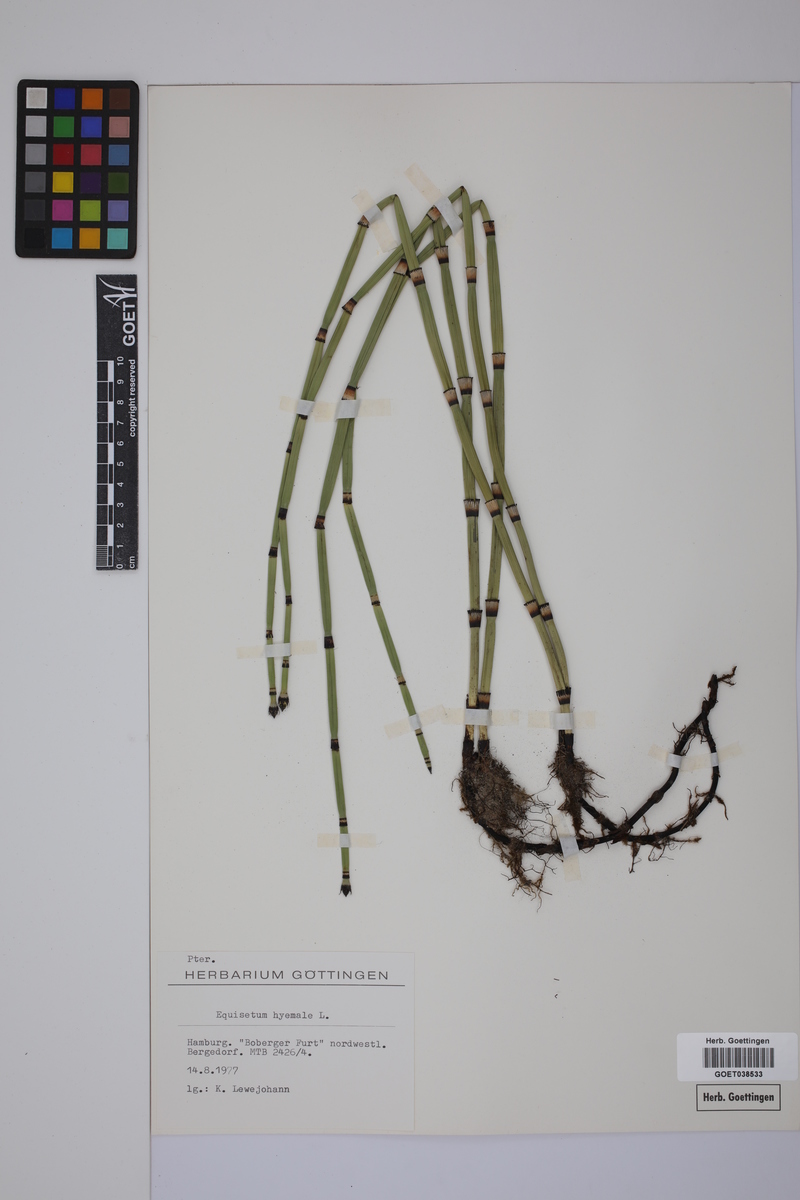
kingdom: Plantae
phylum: Tracheophyta
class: Polypodiopsida
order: Equisetales
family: Equisetaceae
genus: Equisetum
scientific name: Equisetum hyemale
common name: Rough horsetail
